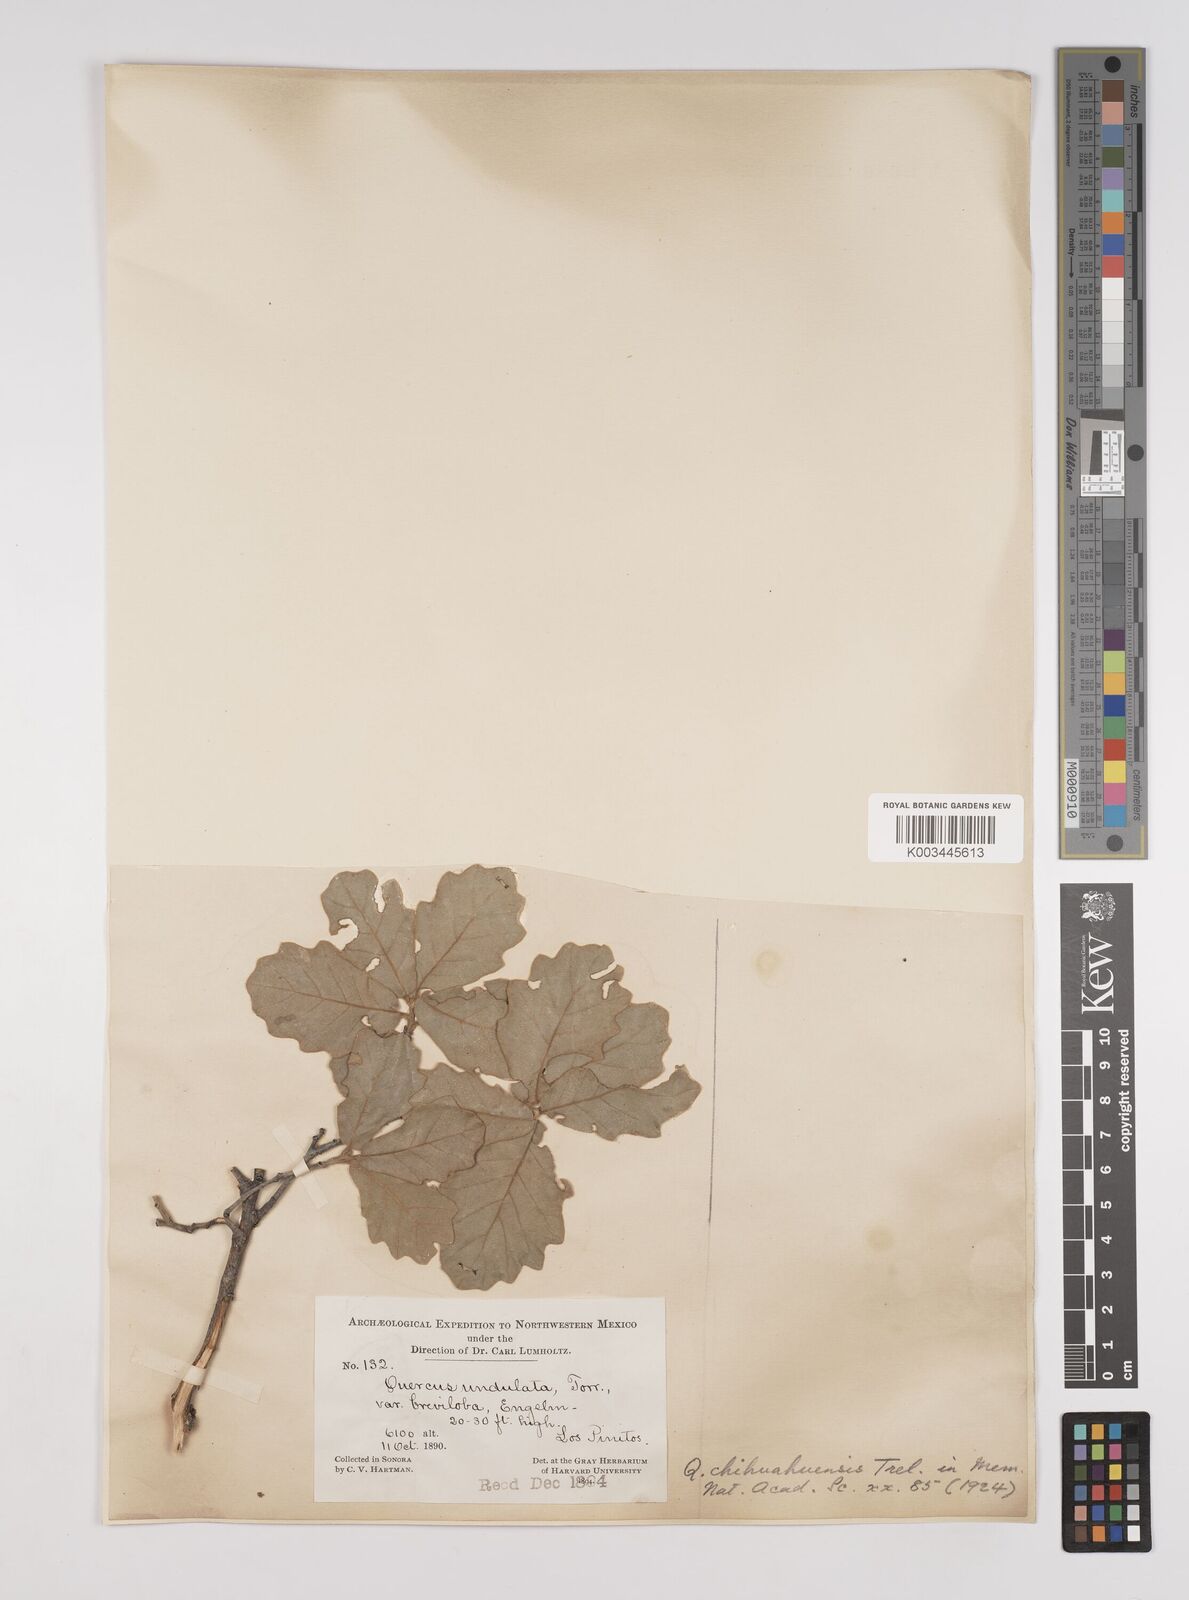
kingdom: Plantae
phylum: Tracheophyta
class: Magnoliopsida
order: Fagales
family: Fagaceae
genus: Quercus
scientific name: Quercus chihuahuensis
